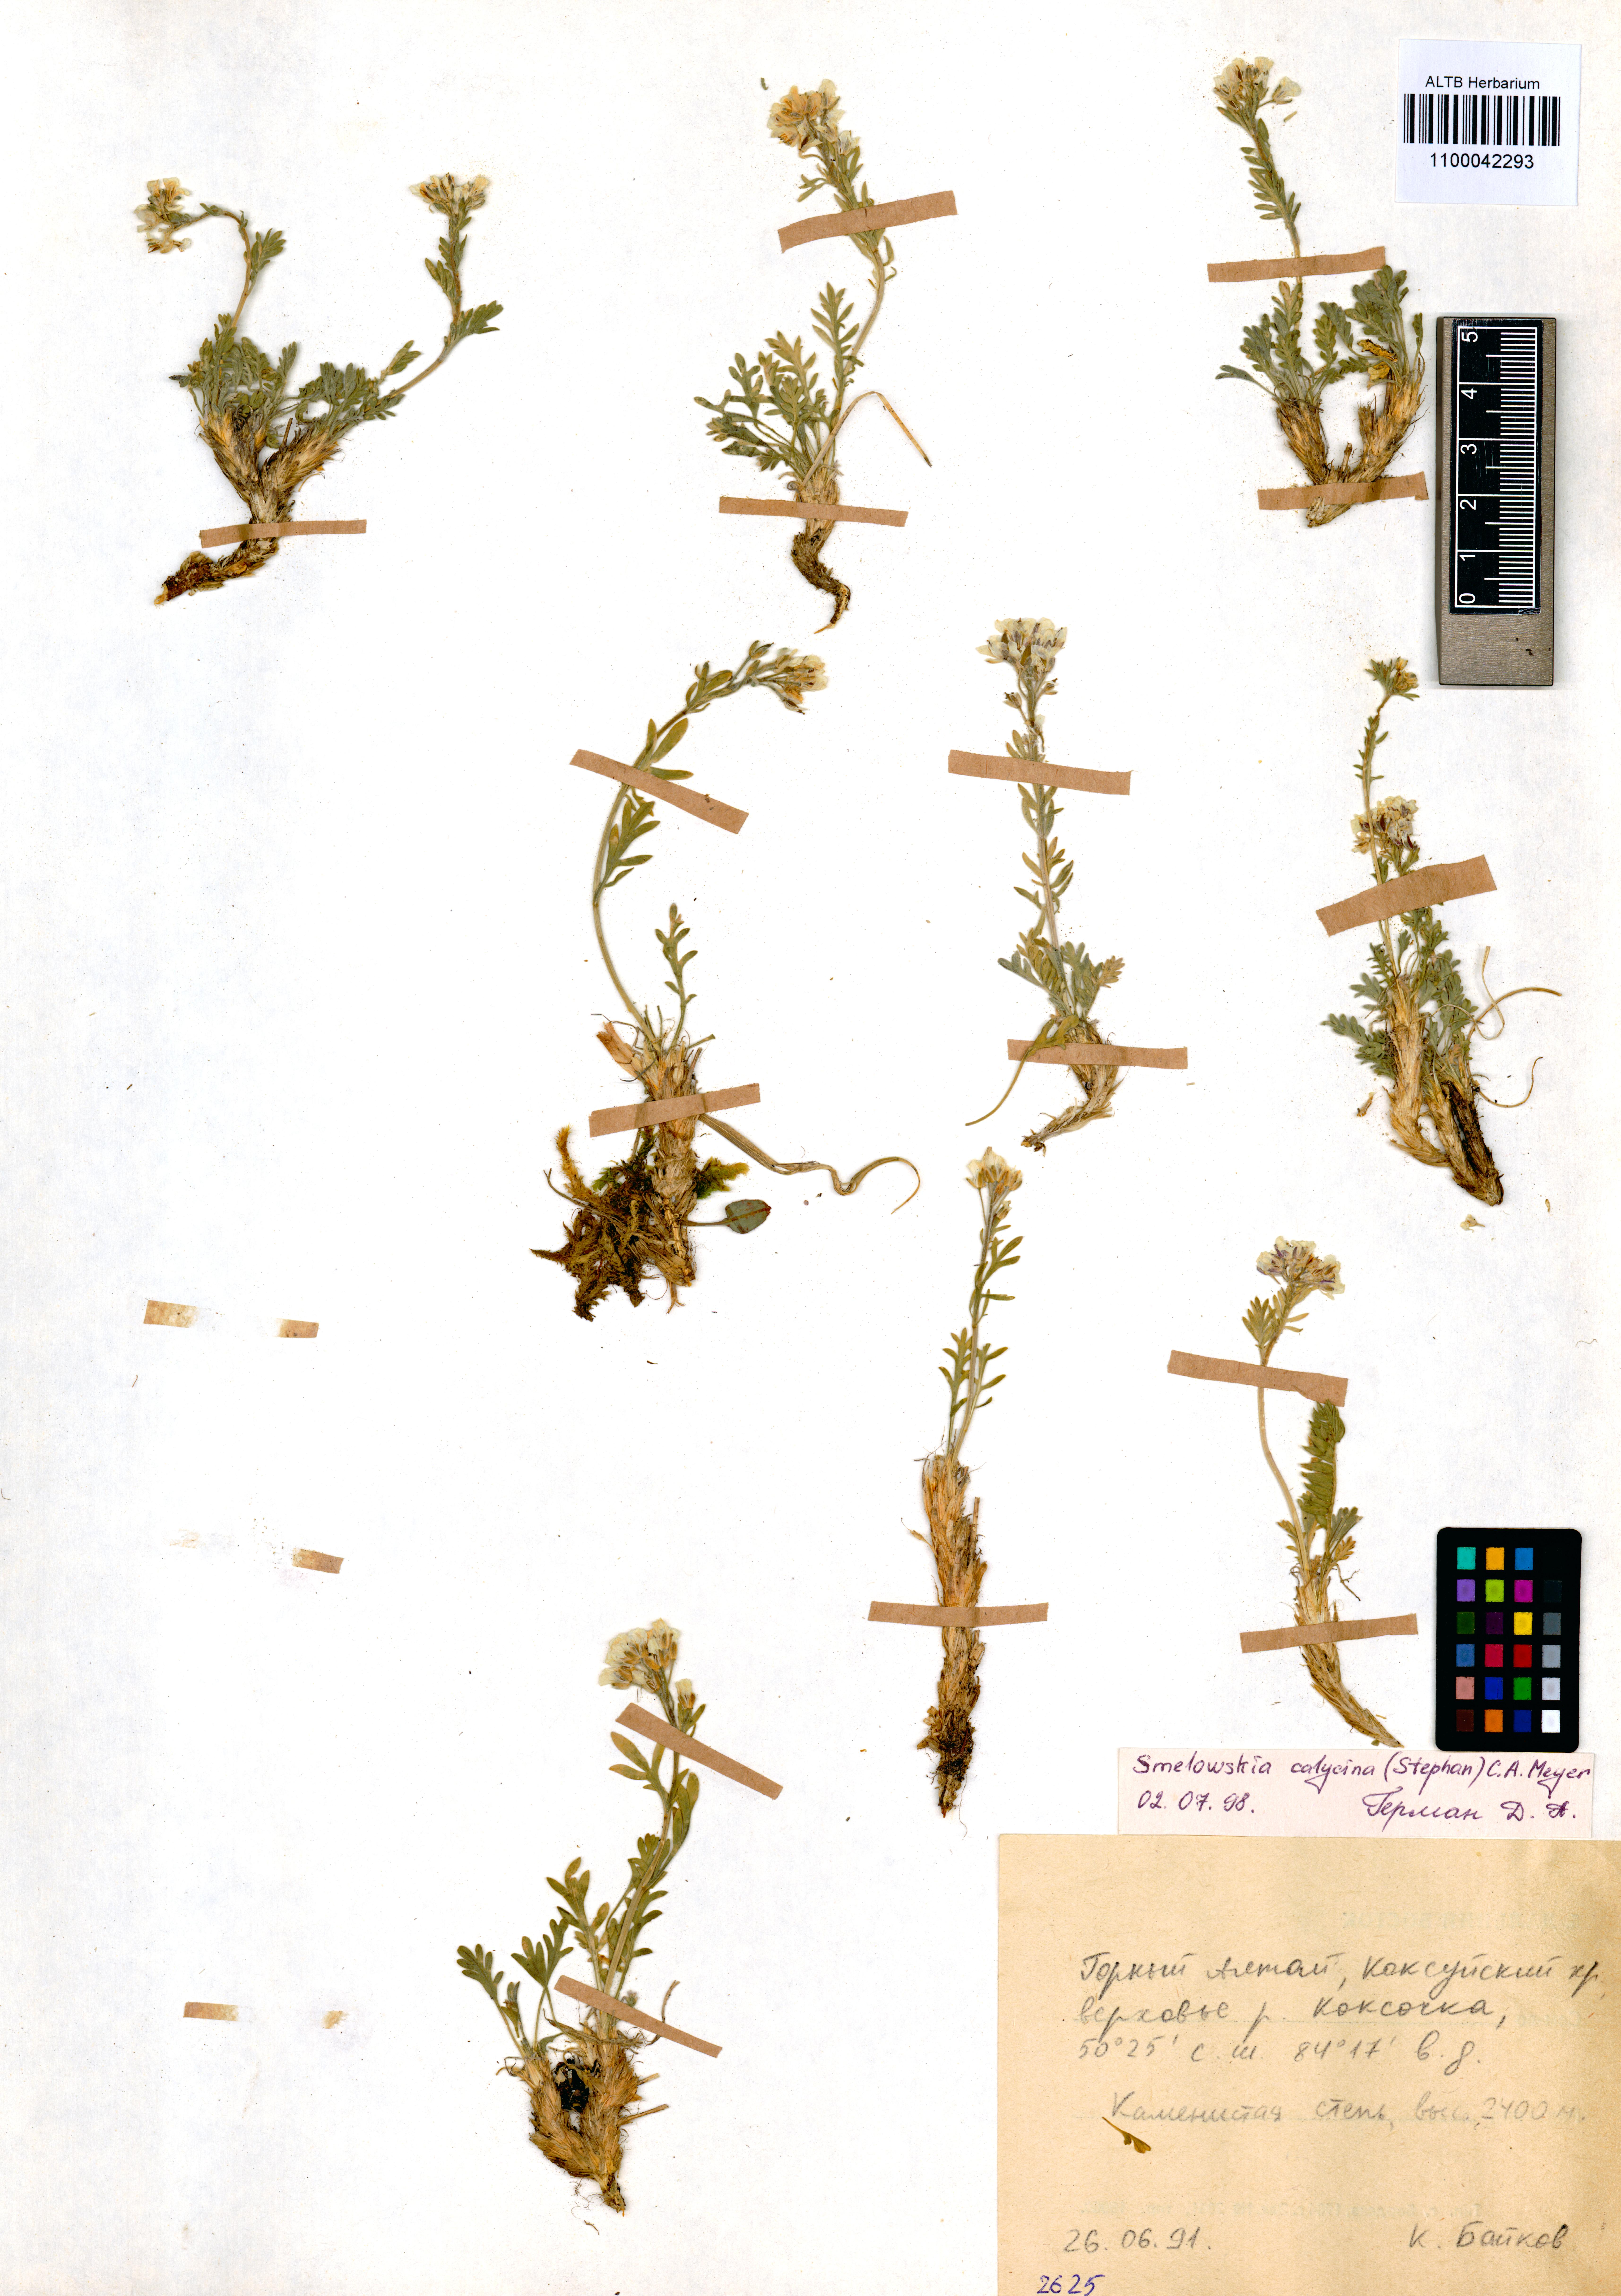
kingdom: Plantae
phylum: Tracheophyta
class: Magnoliopsida
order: Brassicales
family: Brassicaceae
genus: Smelowskia
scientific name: Smelowskia calycina
